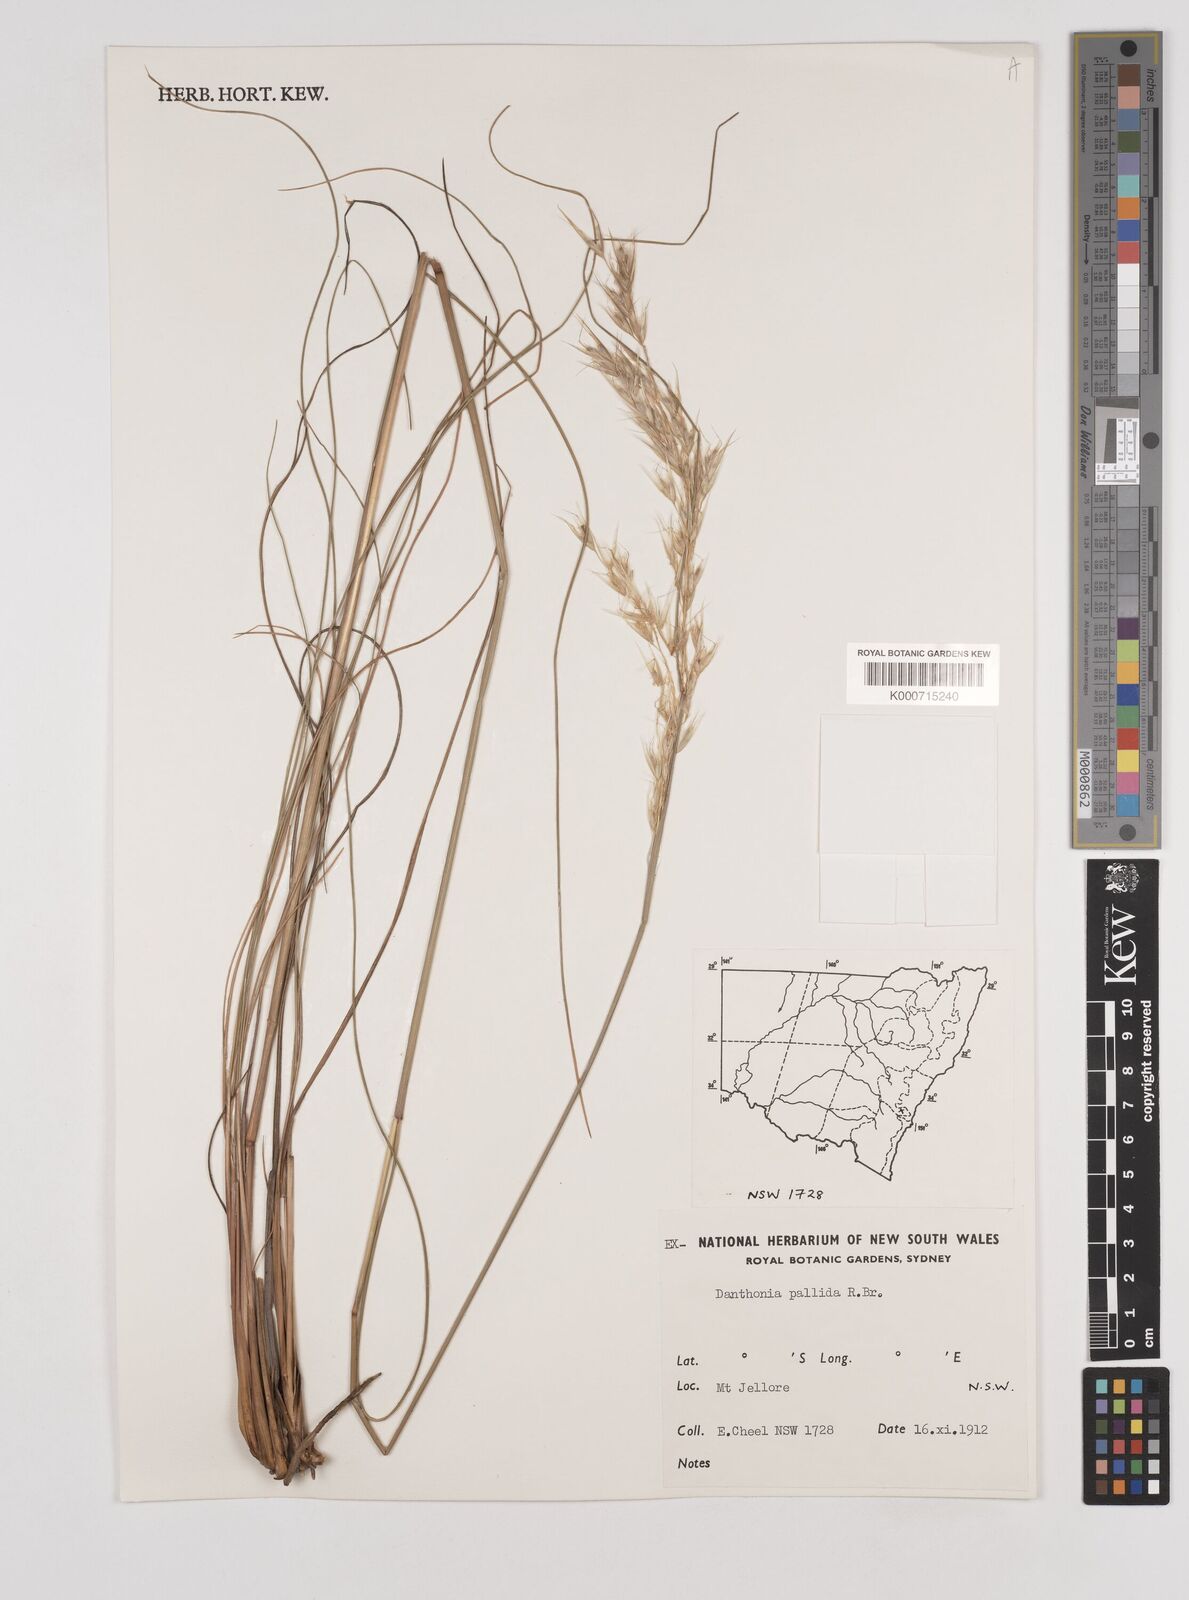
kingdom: Plantae
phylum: Tracheophyta
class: Liliopsida
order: Poales
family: Poaceae
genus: Rytidosperma
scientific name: Rytidosperma
